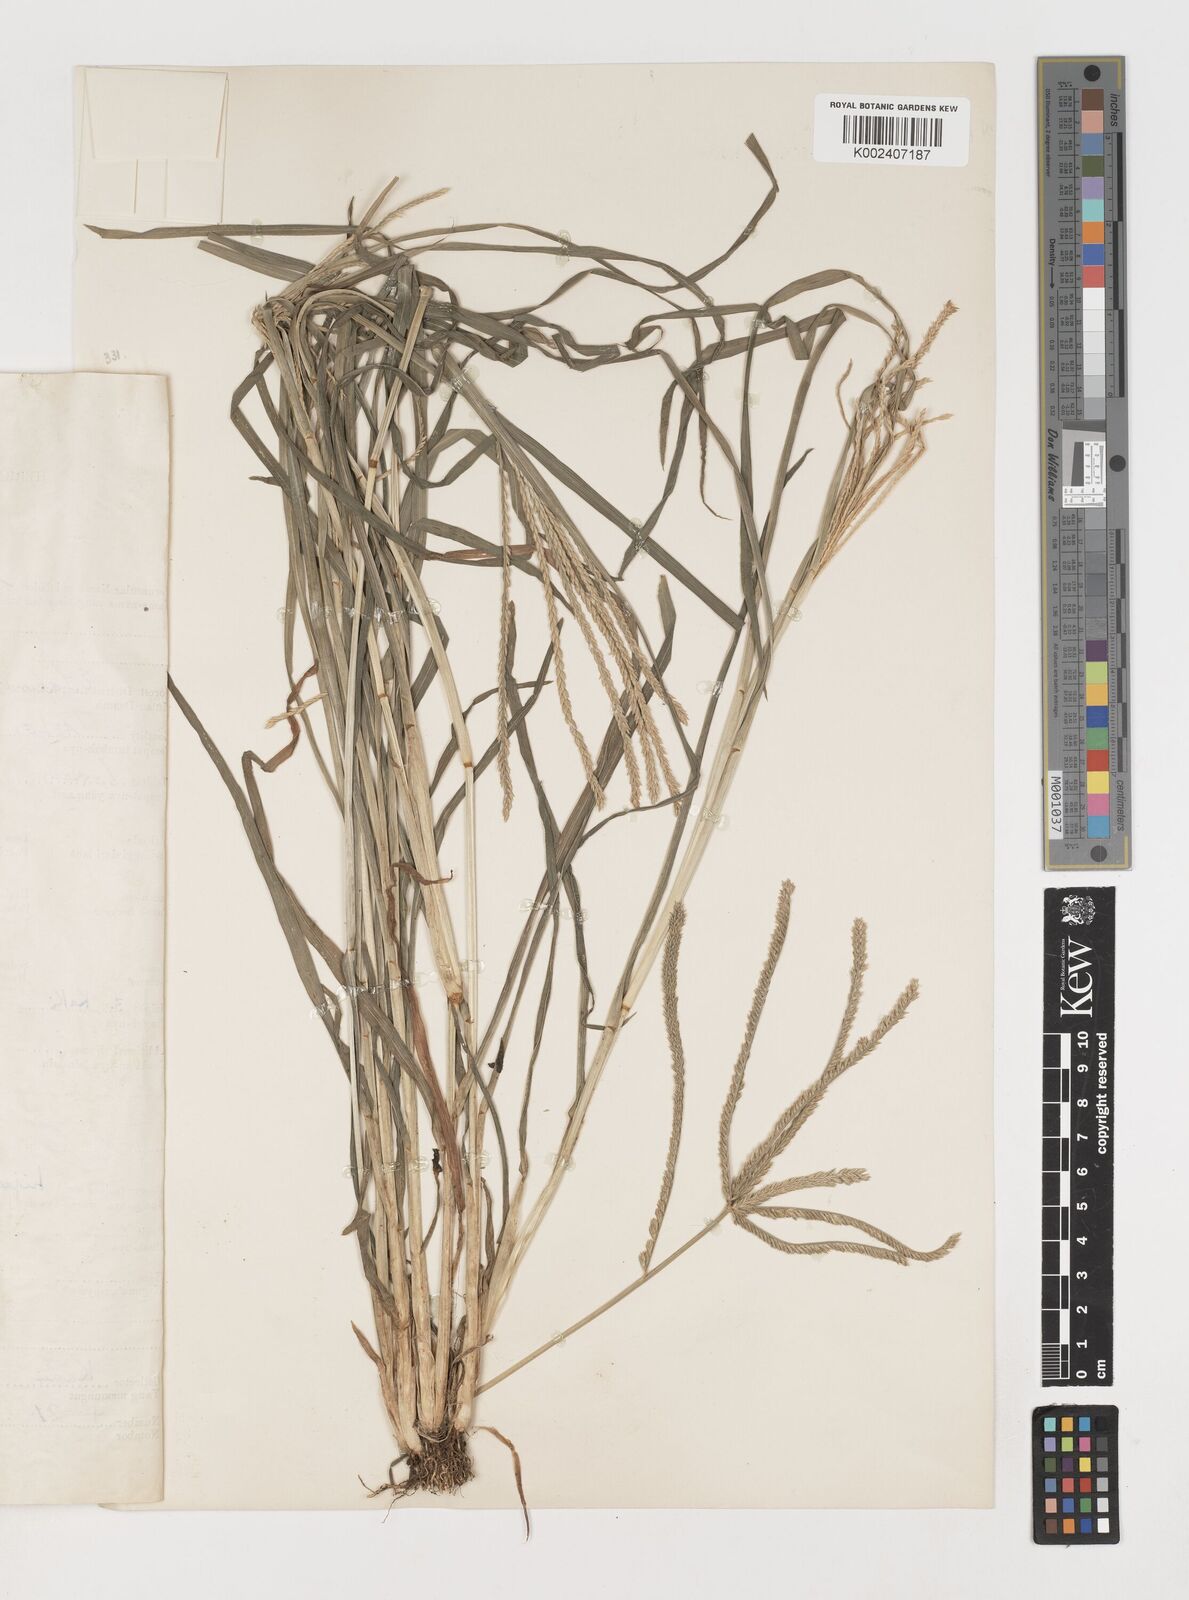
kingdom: Plantae
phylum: Tracheophyta
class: Liliopsida
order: Poales
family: Poaceae
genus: Eleusine
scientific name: Eleusine indica
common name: Yard-grass
